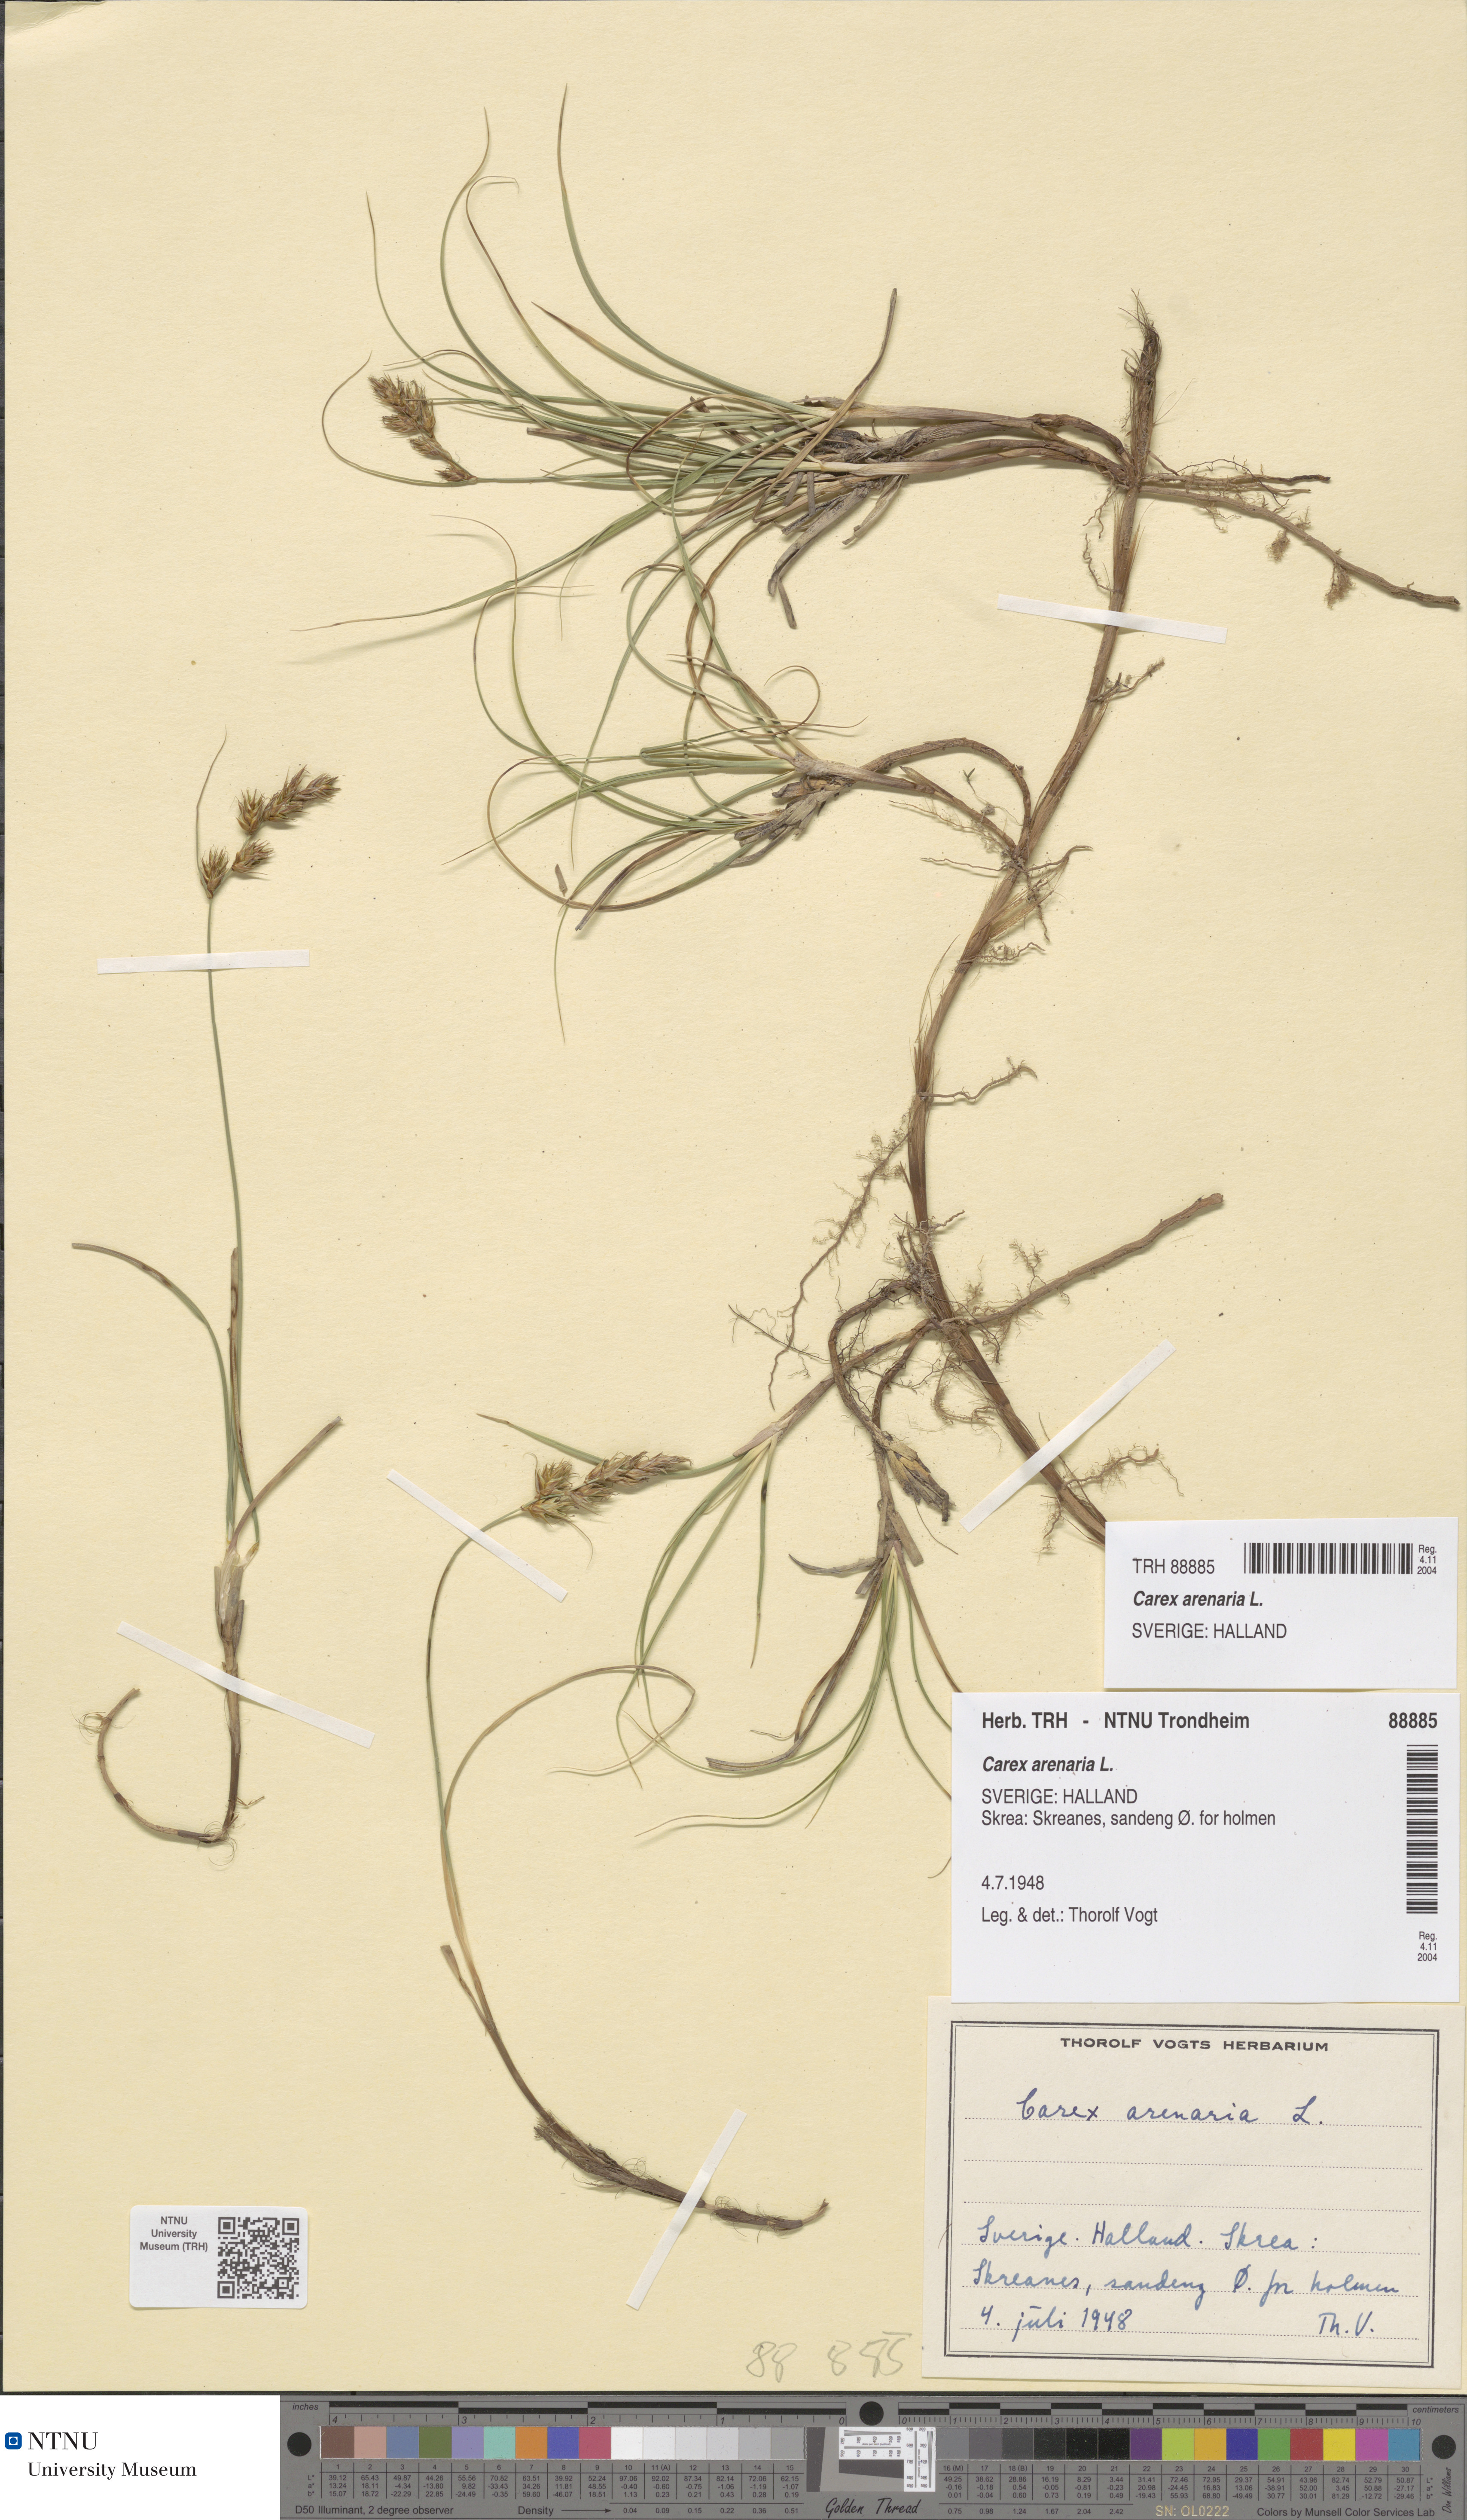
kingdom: Plantae
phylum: Tracheophyta
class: Liliopsida
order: Poales
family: Cyperaceae
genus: Carex
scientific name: Carex arenaria
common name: Sand sedge
